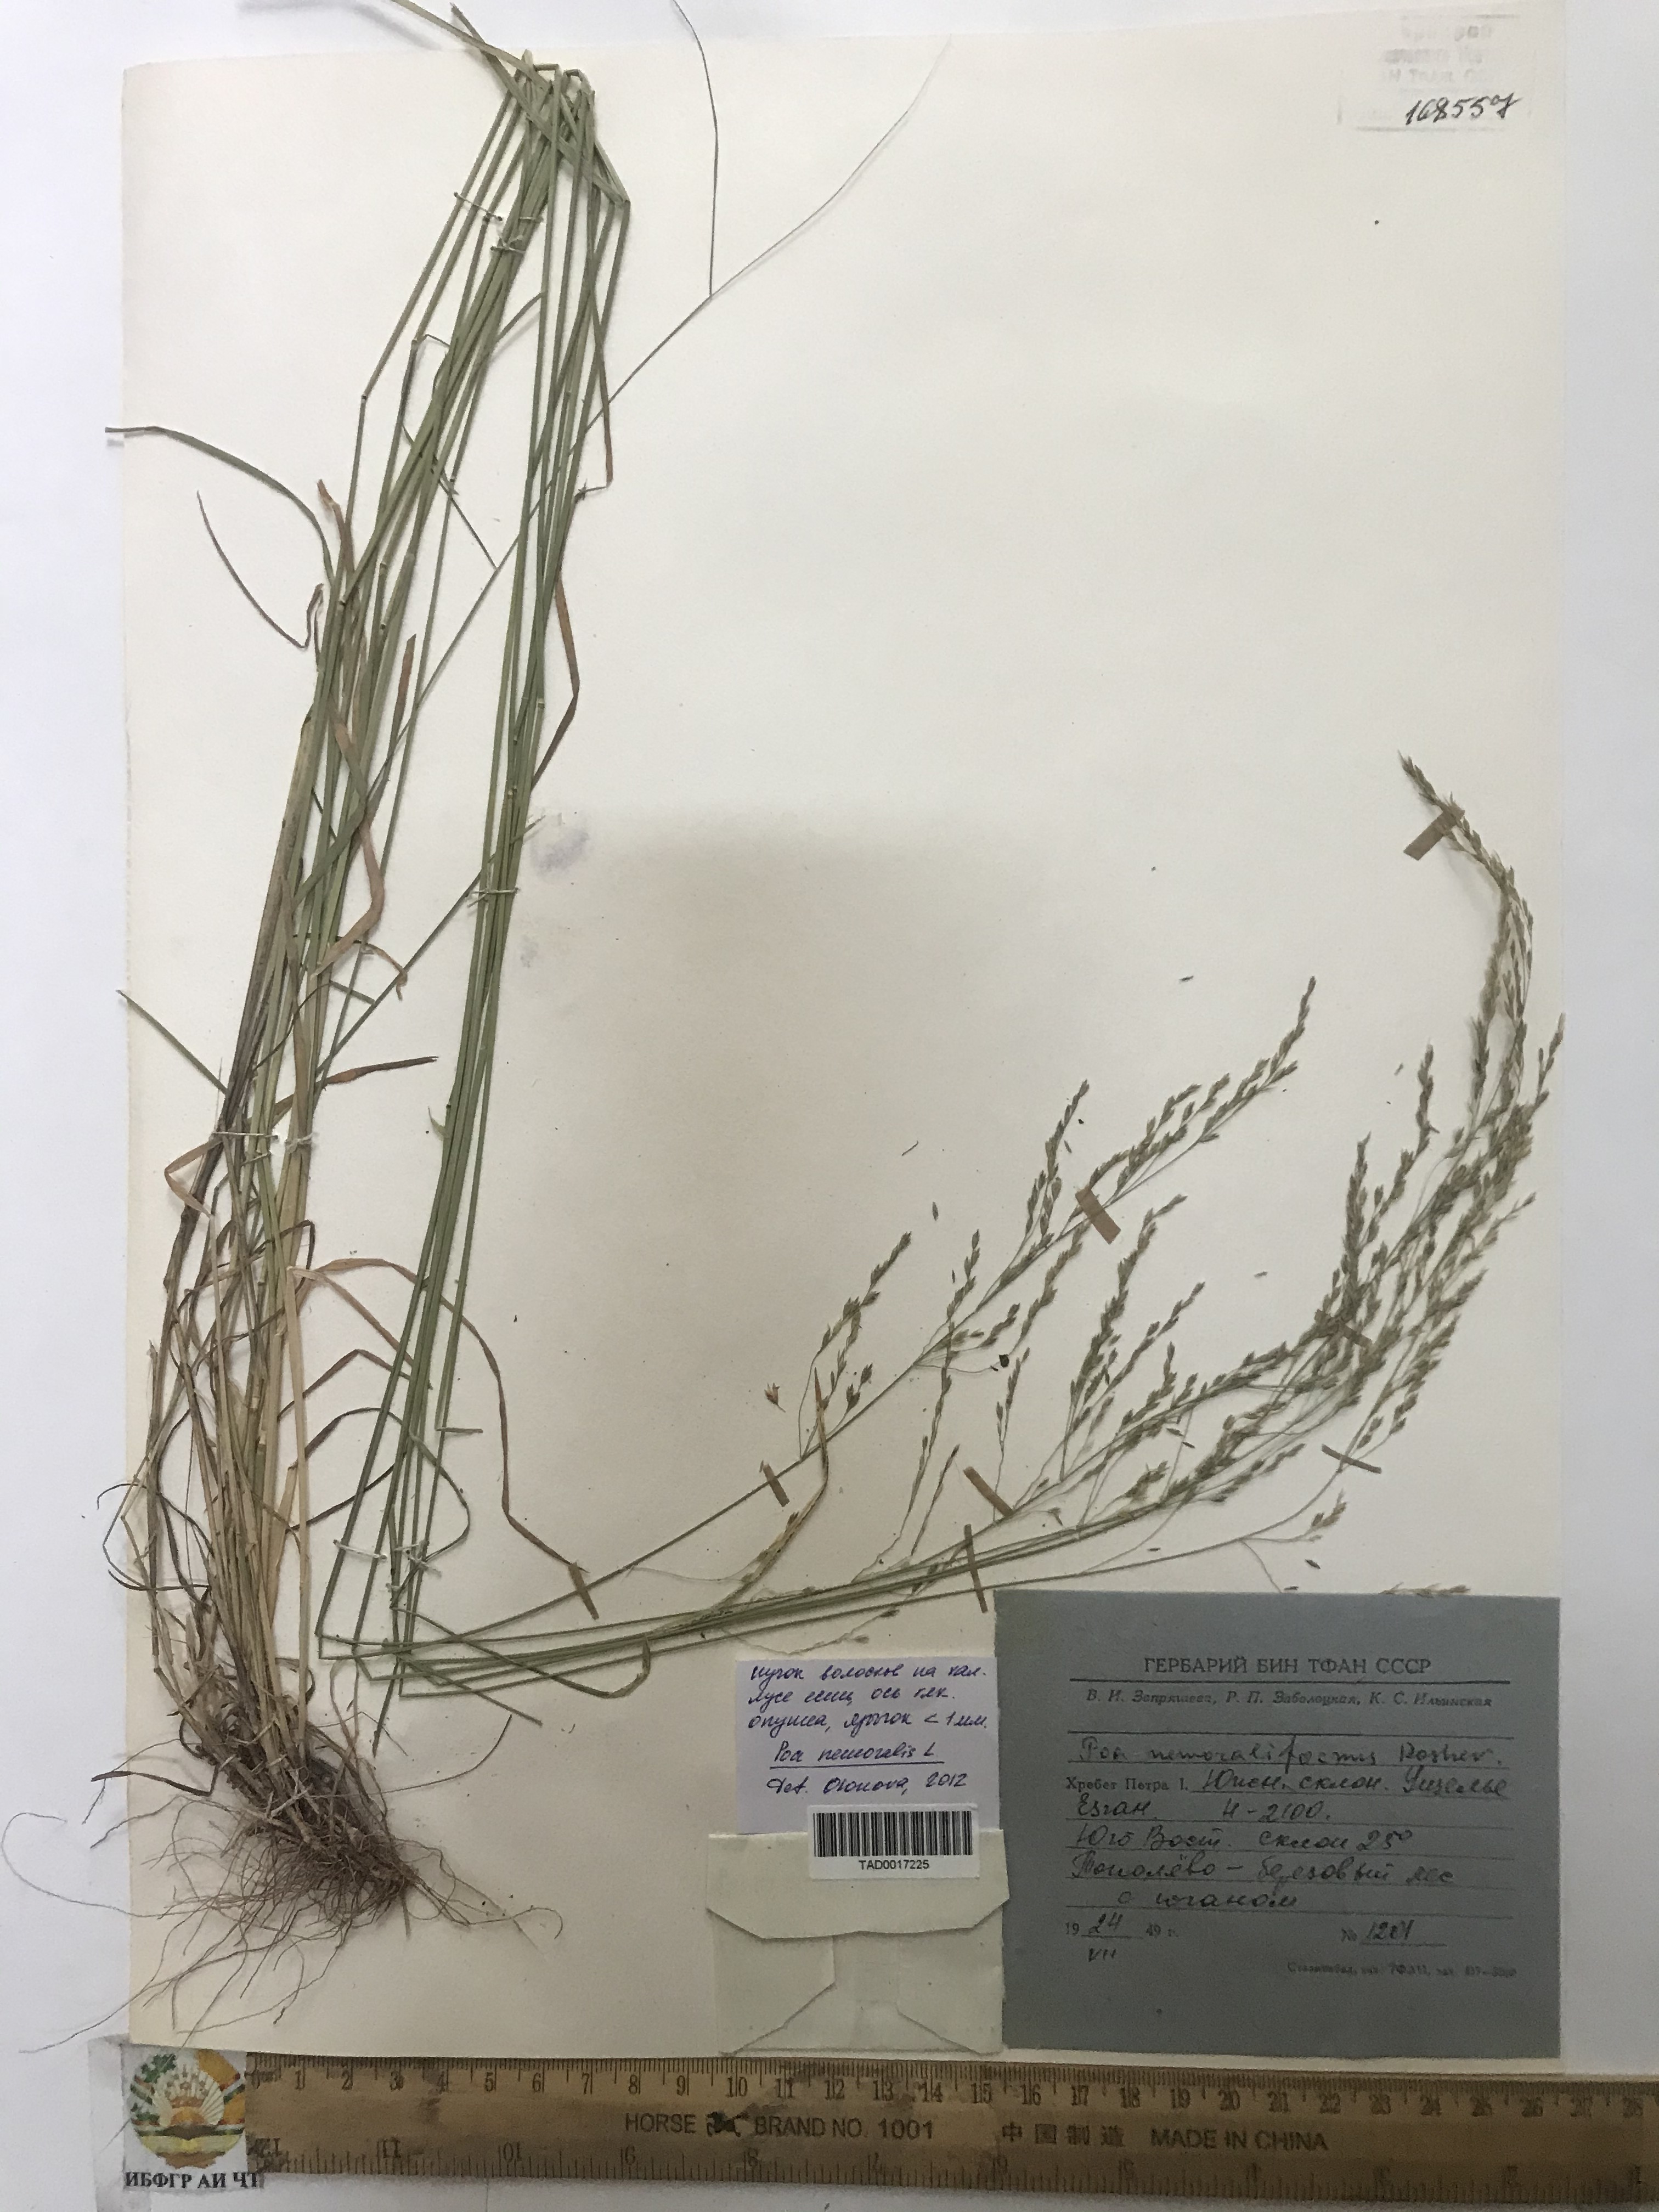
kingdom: Plantae
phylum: Tracheophyta
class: Liliopsida
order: Poales
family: Poaceae
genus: Poa
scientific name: Poa nemoralis
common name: Wood bluegrass
